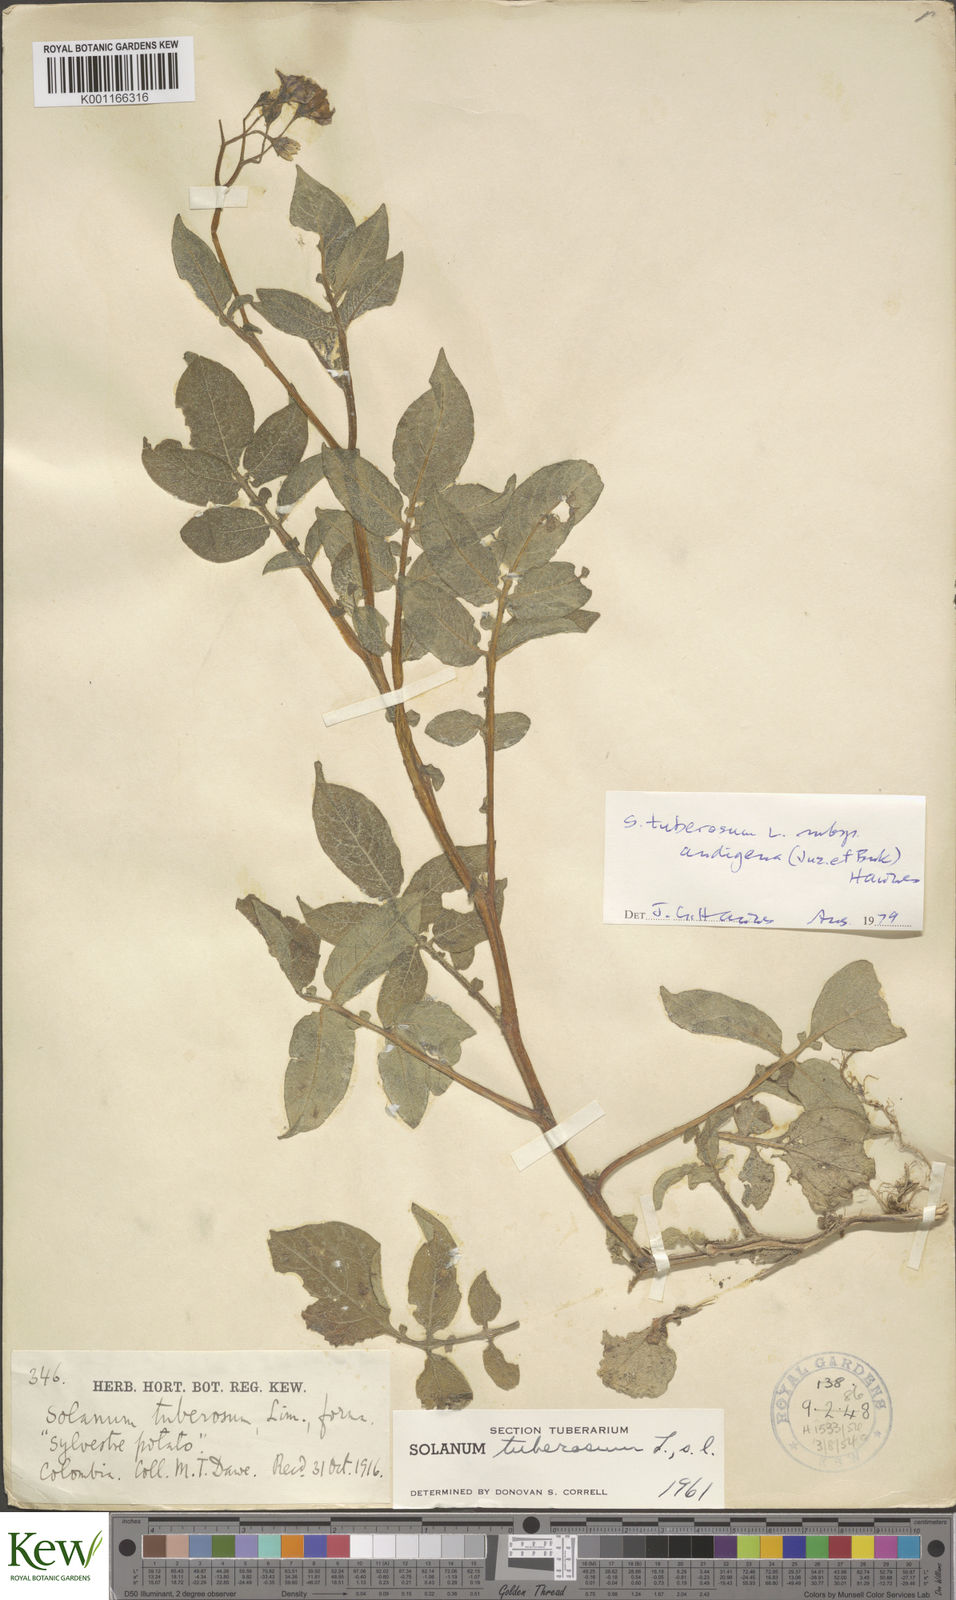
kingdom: Plantae
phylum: Tracheophyta
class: Magnoliopsida
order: Solanales
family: Solanaceae
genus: Solanum
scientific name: Solanum tuberosum
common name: Potato
